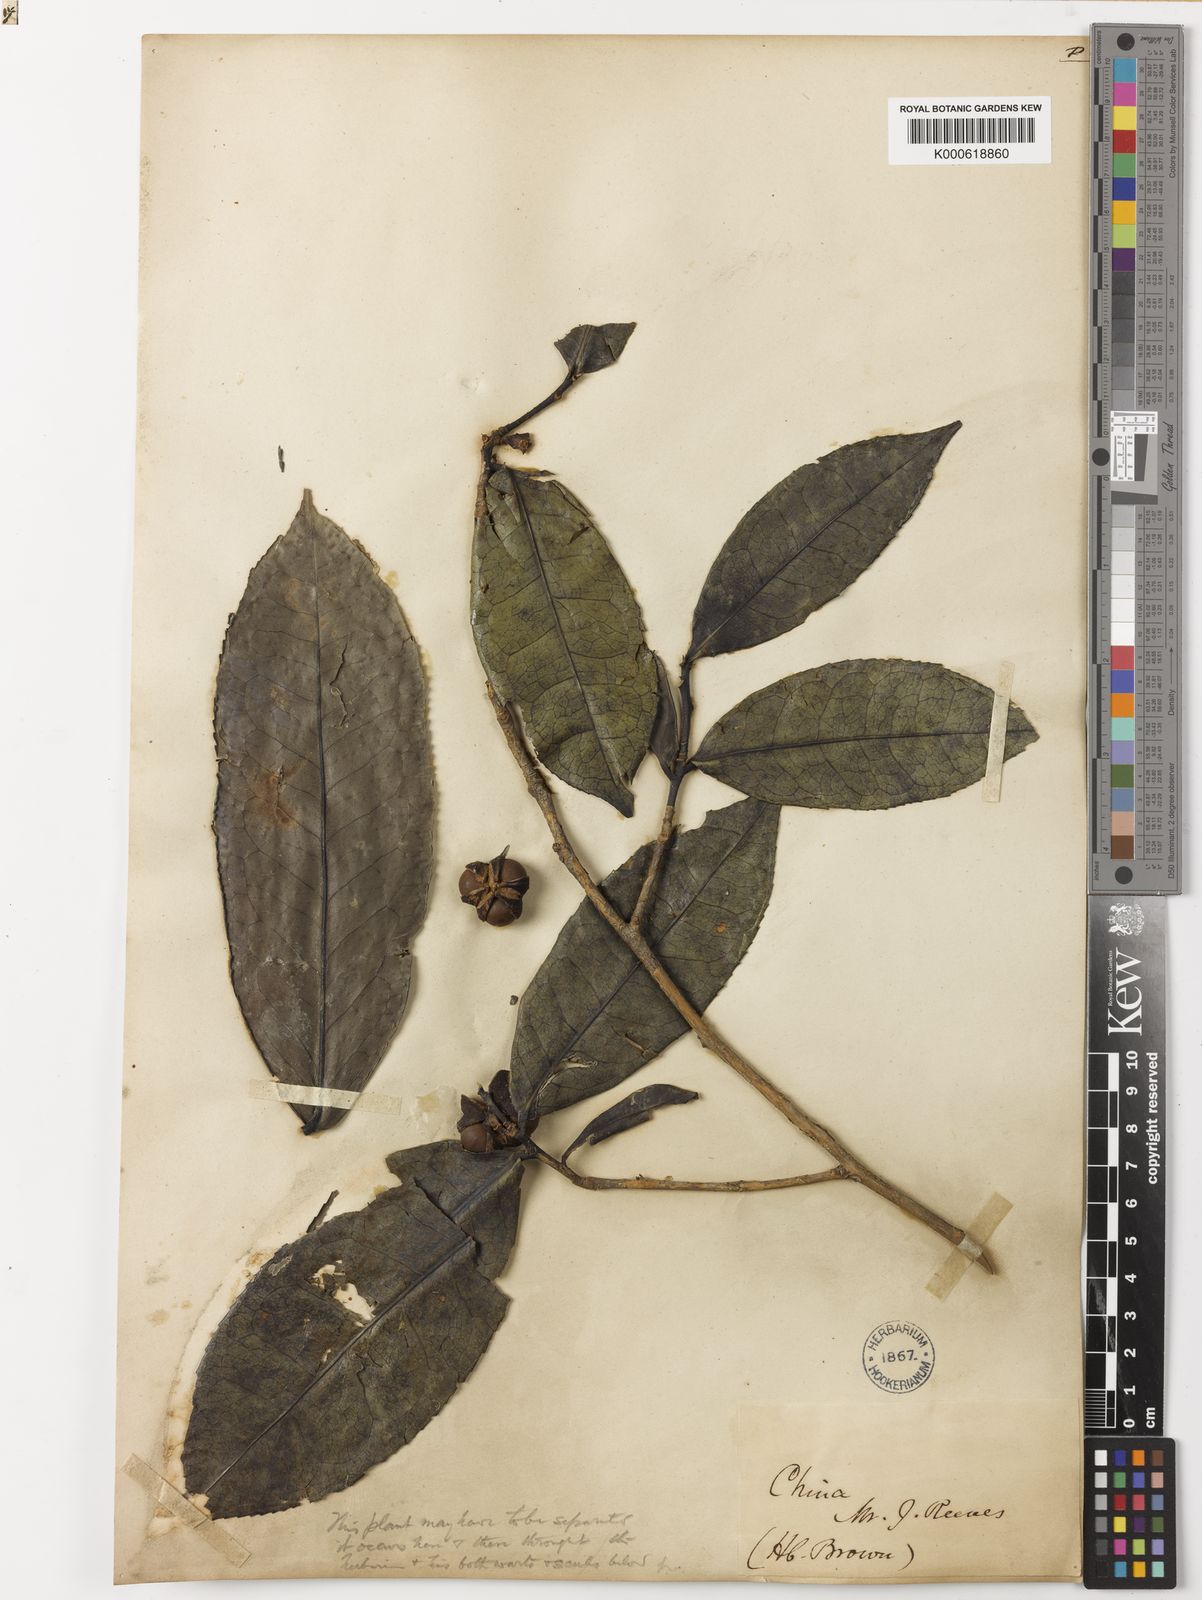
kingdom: Plantae
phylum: Tracheophyta
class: Magnoliopsida
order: Ericales
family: Theaceae
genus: Camellia
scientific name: Camellia sinensis
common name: Tea
